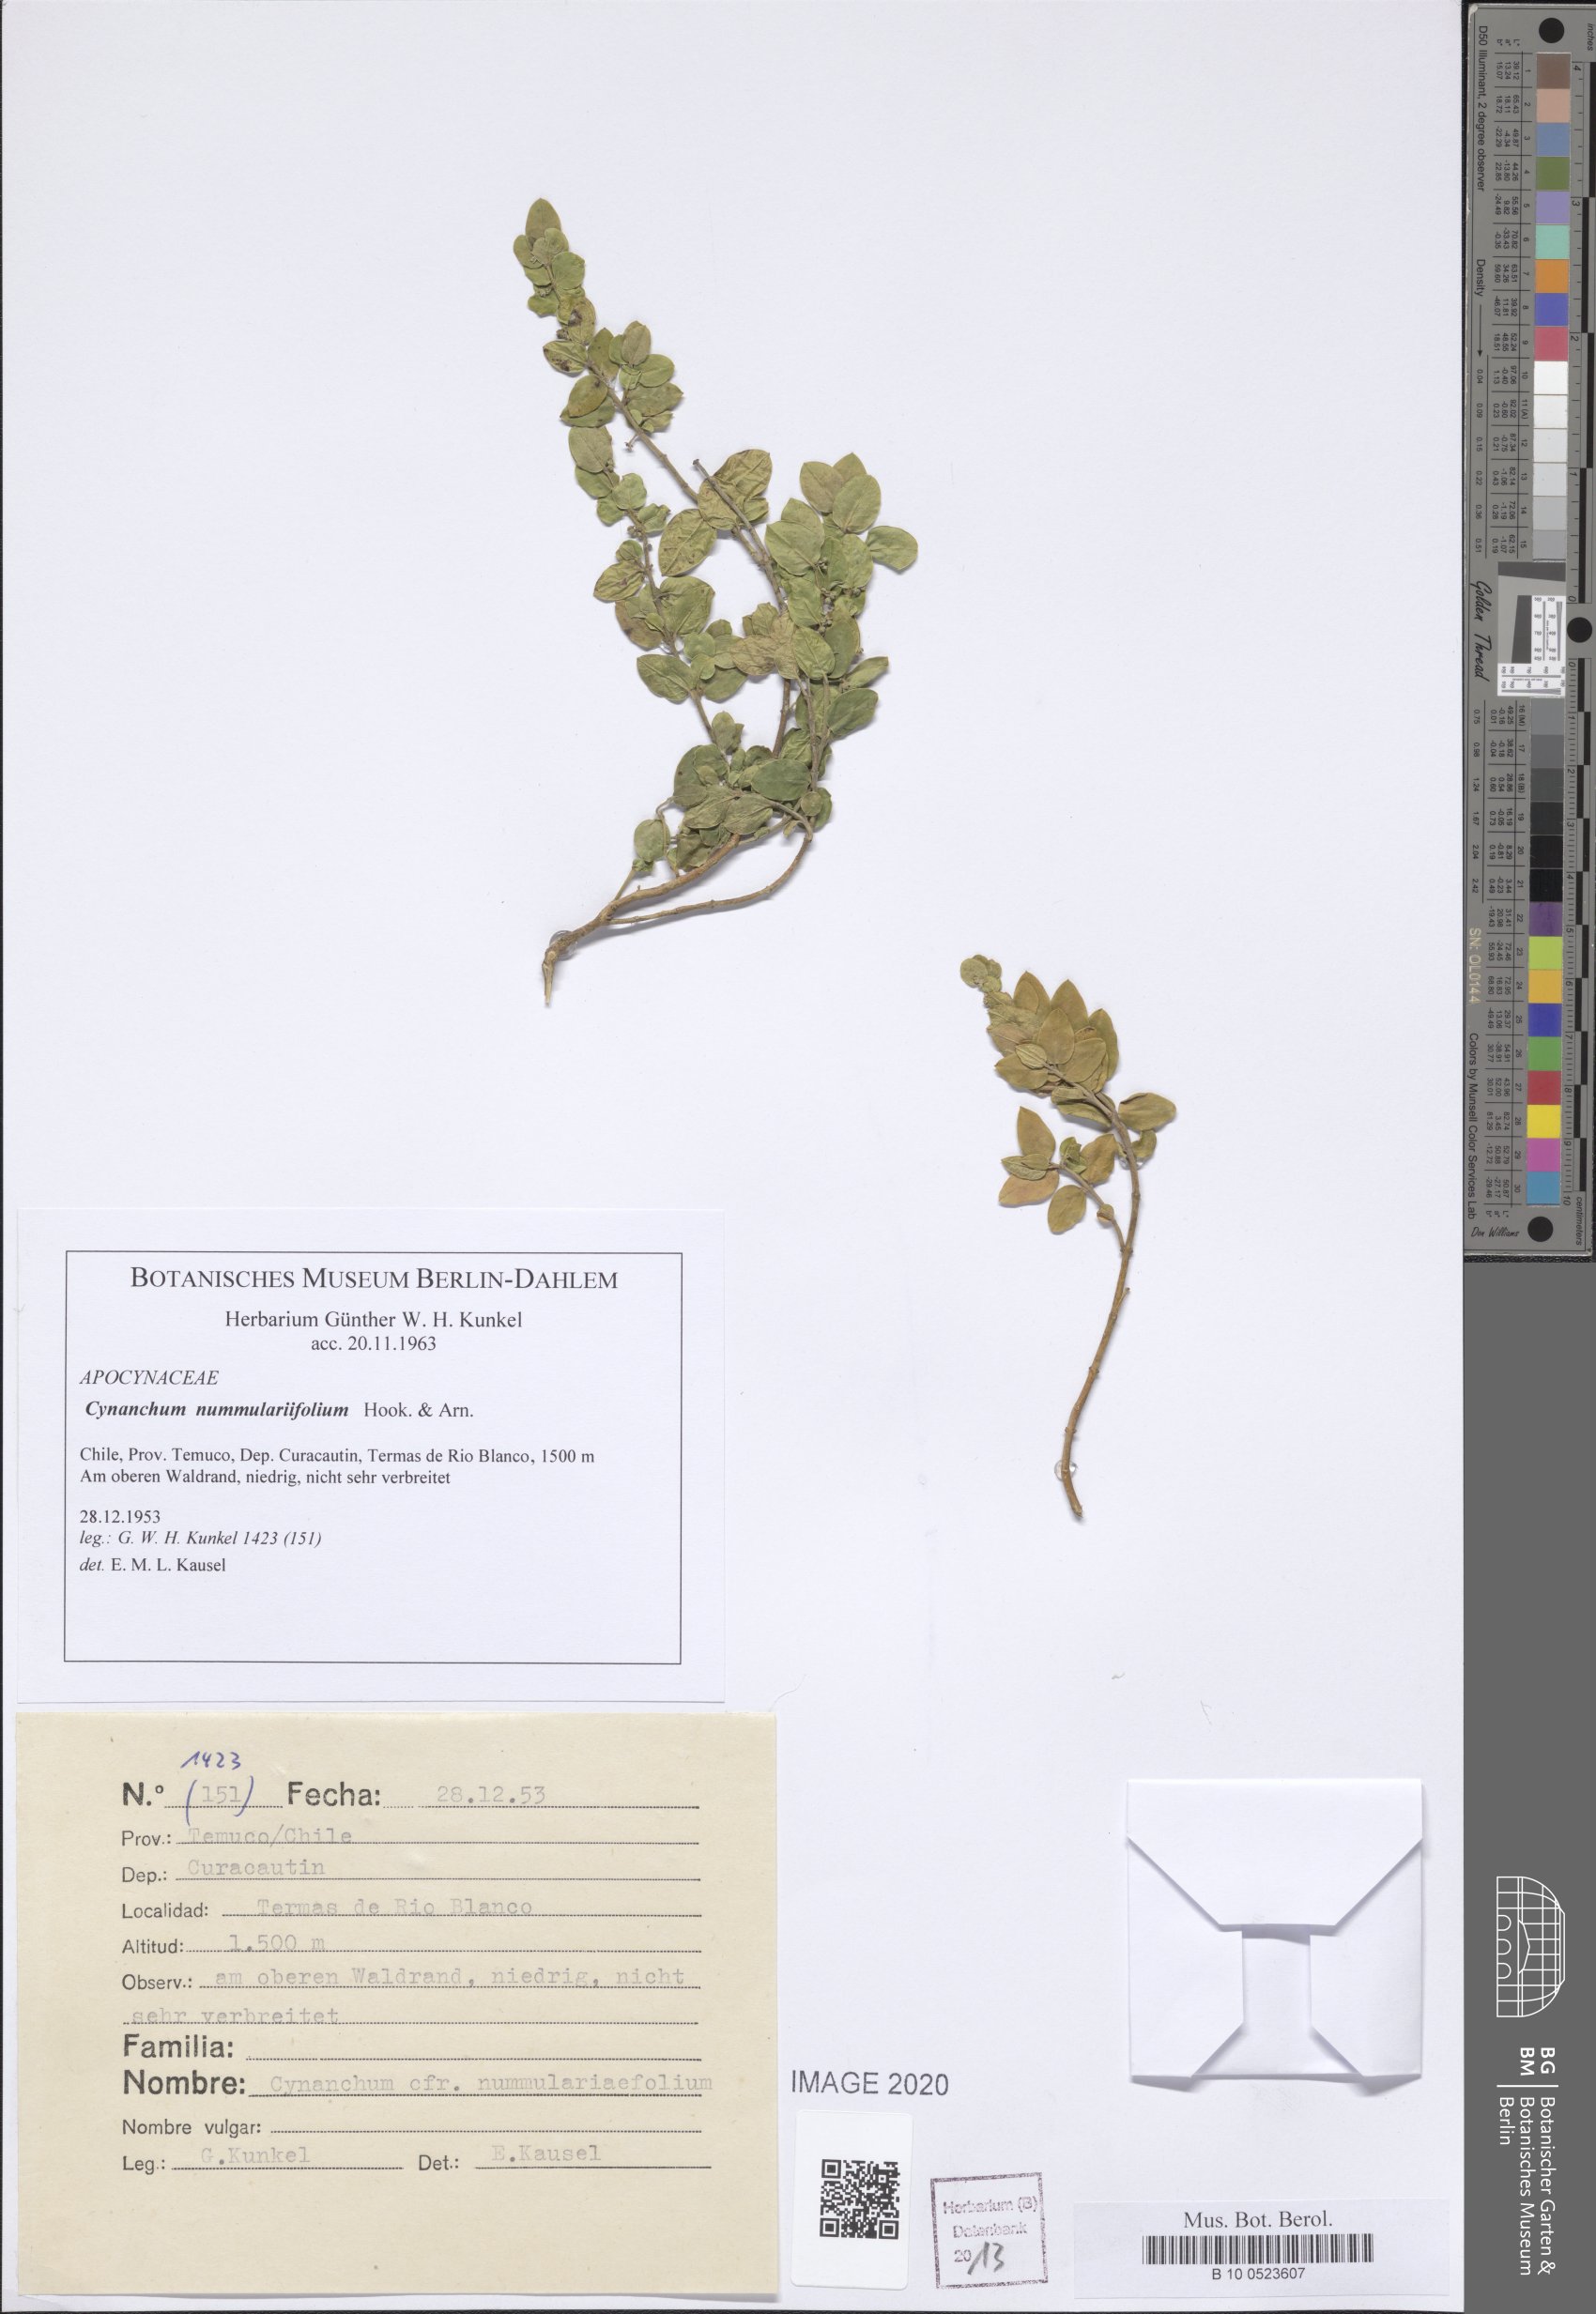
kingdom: Plantae
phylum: Tracheophyta
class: Magnoliopsida
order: Gentianales
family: Apocynaceae
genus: Diplolepis
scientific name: Diplolepis nummulariifolia
